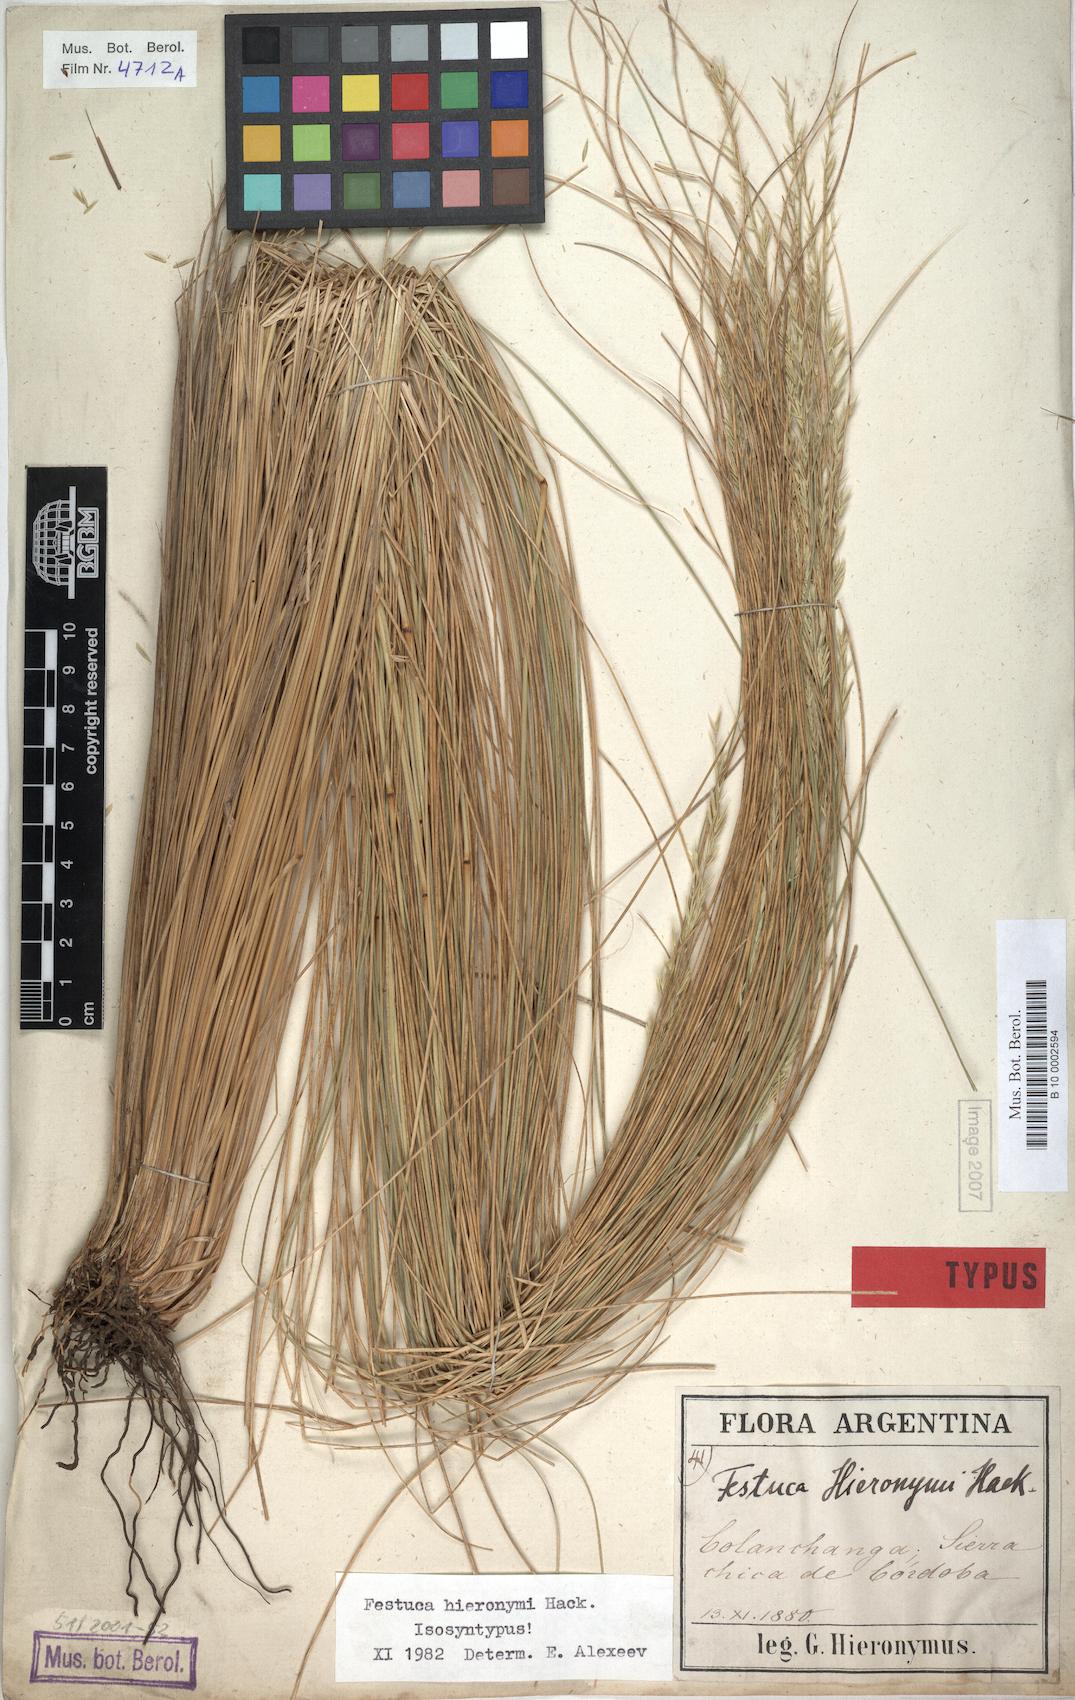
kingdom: Plantae
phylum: Tracheophyta
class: Liliopsida
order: Poales
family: Poaceae
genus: Festuca
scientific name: Festuca hieronymi
